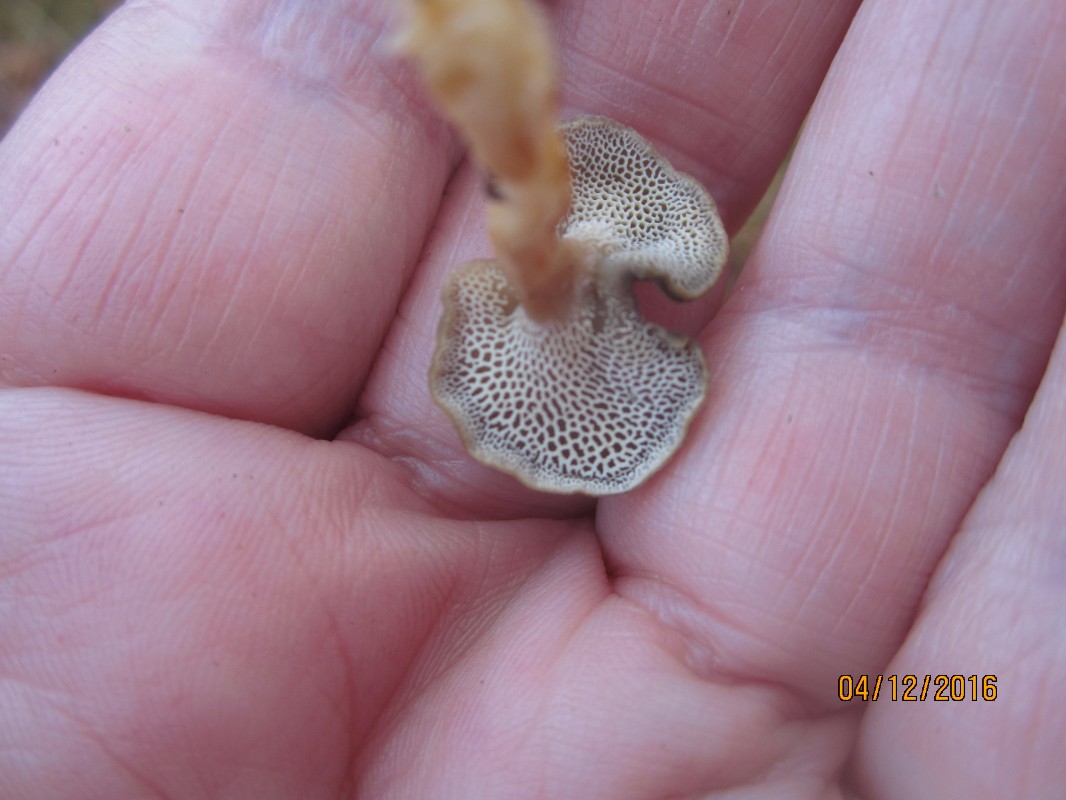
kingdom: Fungi
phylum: Basidiomycota
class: Agaricomycetes
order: Polyporales
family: Polyporaceae
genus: Lentinus
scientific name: Lentinus brumalis
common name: vinter-stilkporesvamp
